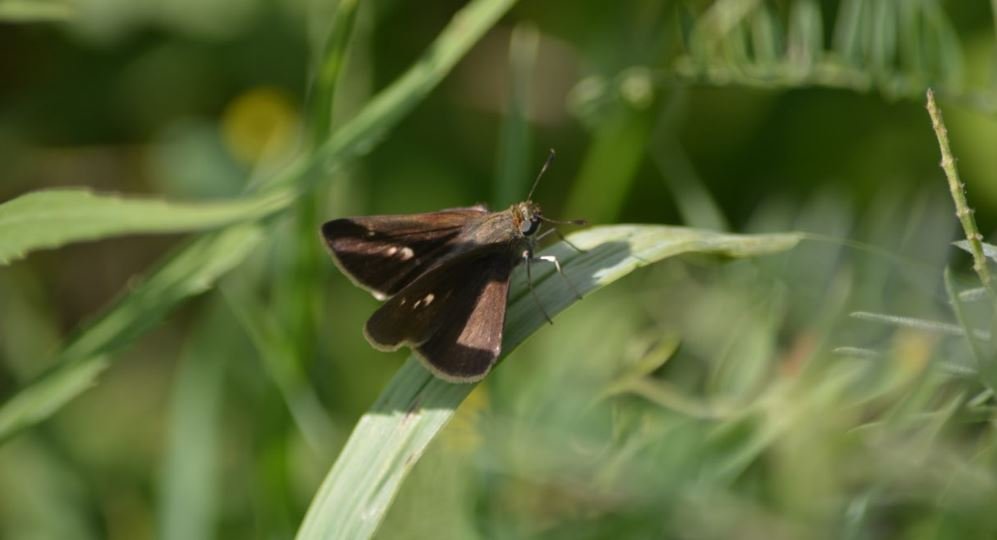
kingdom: Animalia
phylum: Arthropoda
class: Insecta
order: Lepidoptera
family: Hesperiidae
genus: Polites
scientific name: Polites egeremet
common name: Northern Broken-Dash
